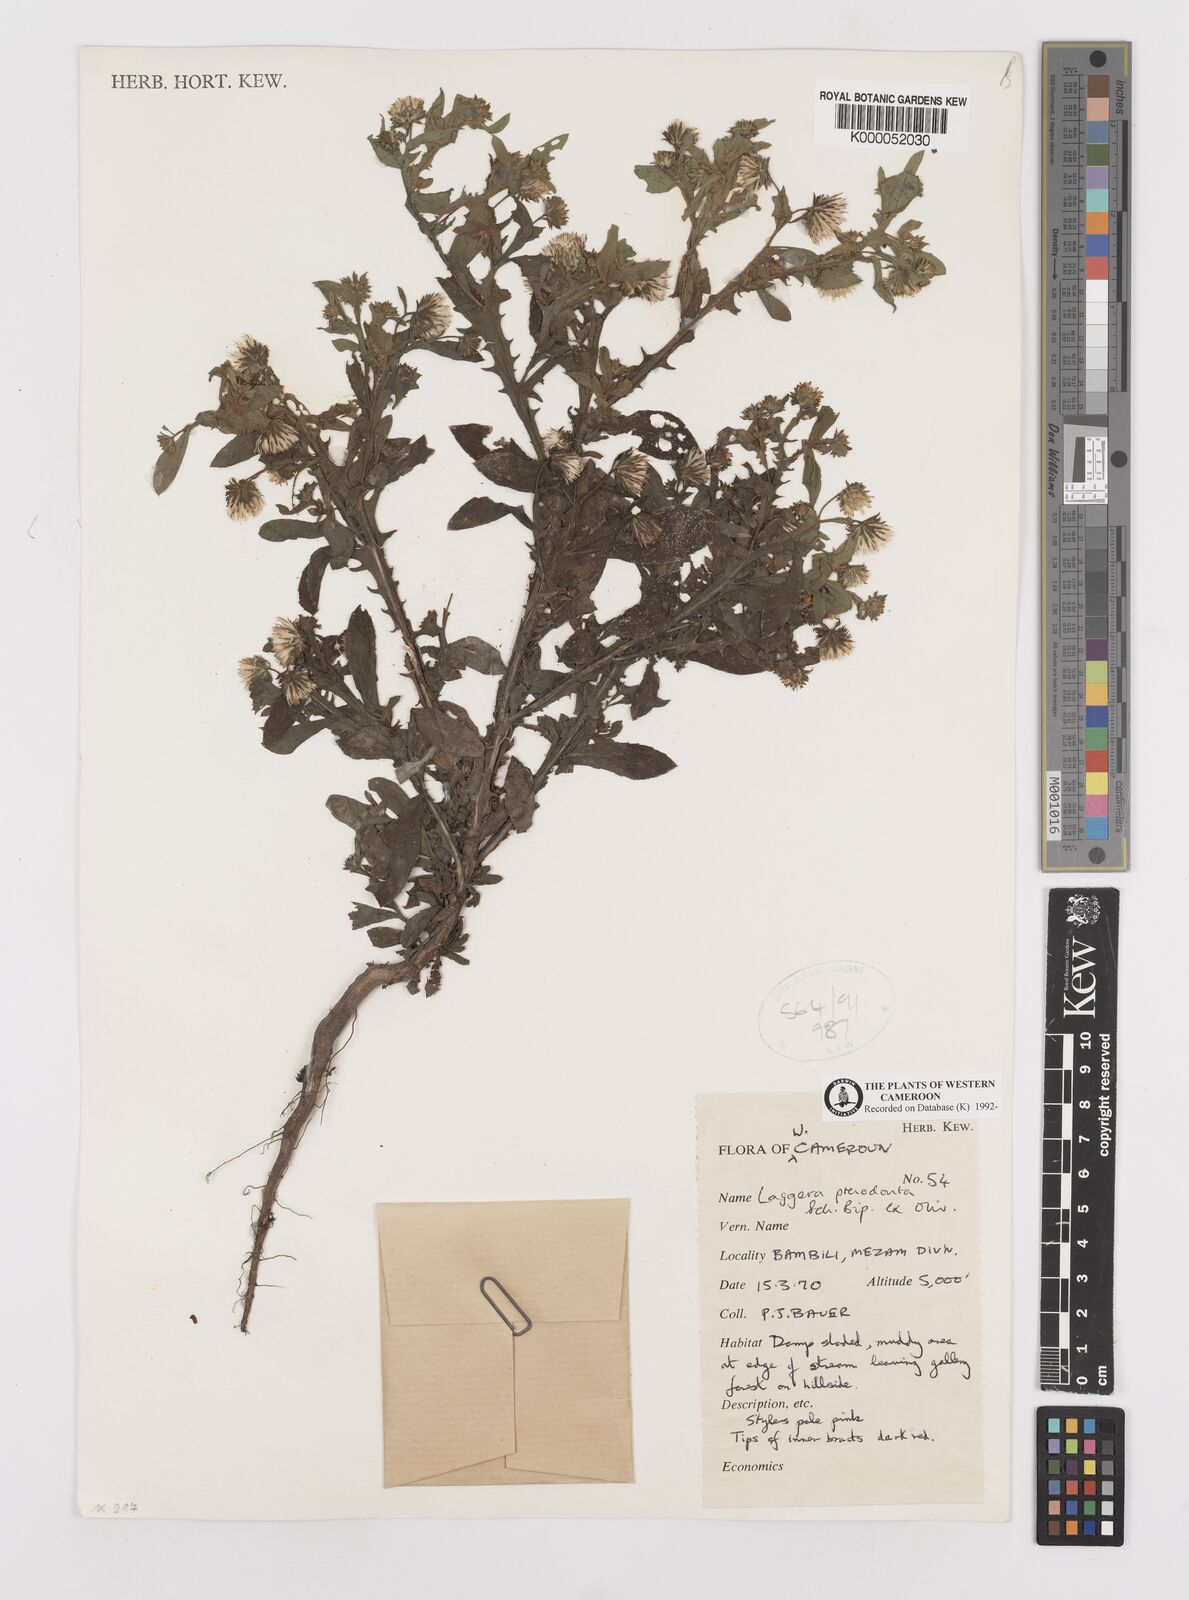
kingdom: Plantae
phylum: Tracheophyta
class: Magnoliopsida
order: Asterales
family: Asteraceae
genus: Laggera
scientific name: Laggera crispata
